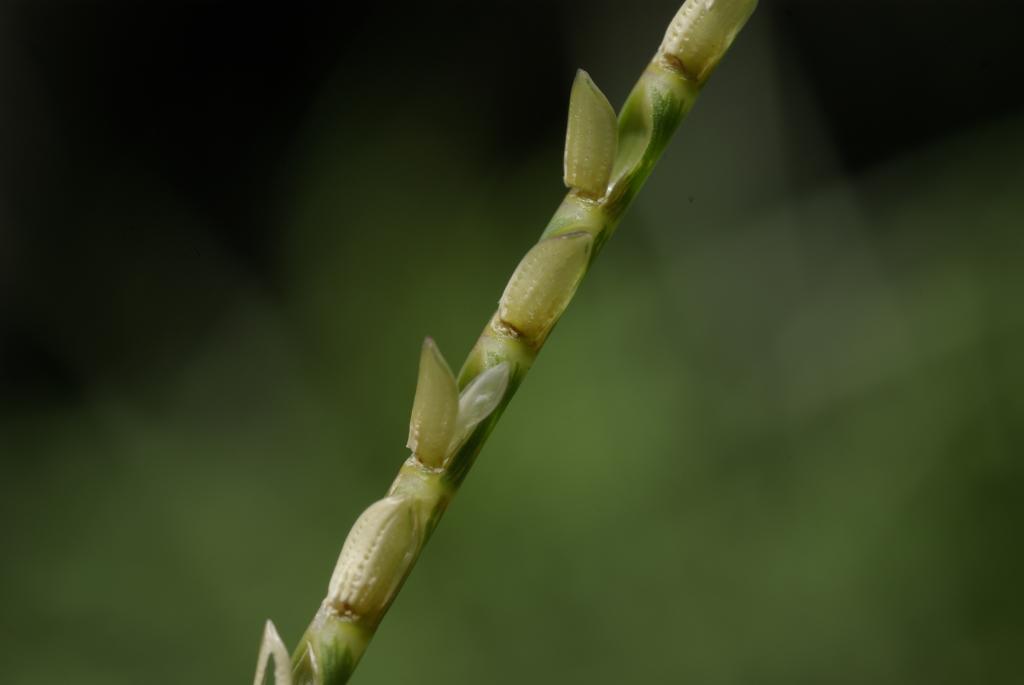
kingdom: Plantae
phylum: Tracheophyta
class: Liliopsida
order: Poales
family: Poaceae
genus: Mnesithea
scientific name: Mnesithea laevis
